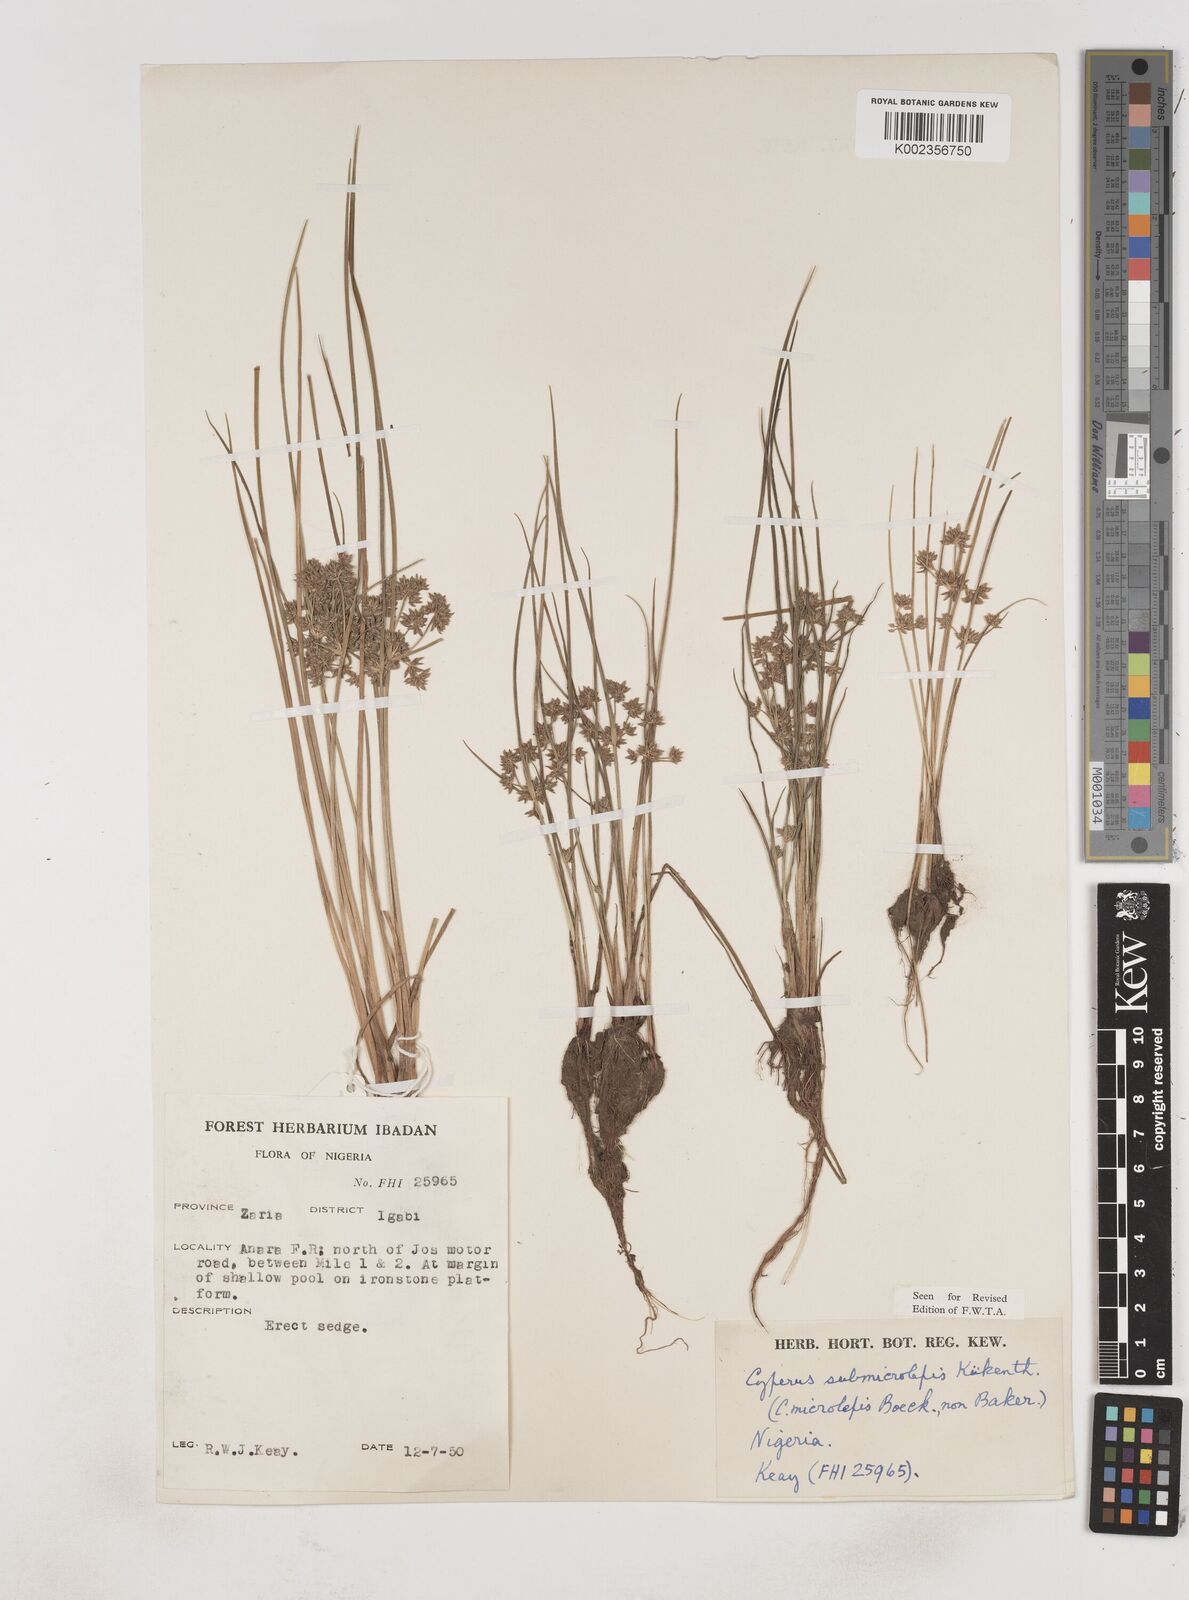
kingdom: Plantae
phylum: Tracheophyta
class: Liliopsida
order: Poales
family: Cyperaceae
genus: Cyperus
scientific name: Cyperus submicrolepis
